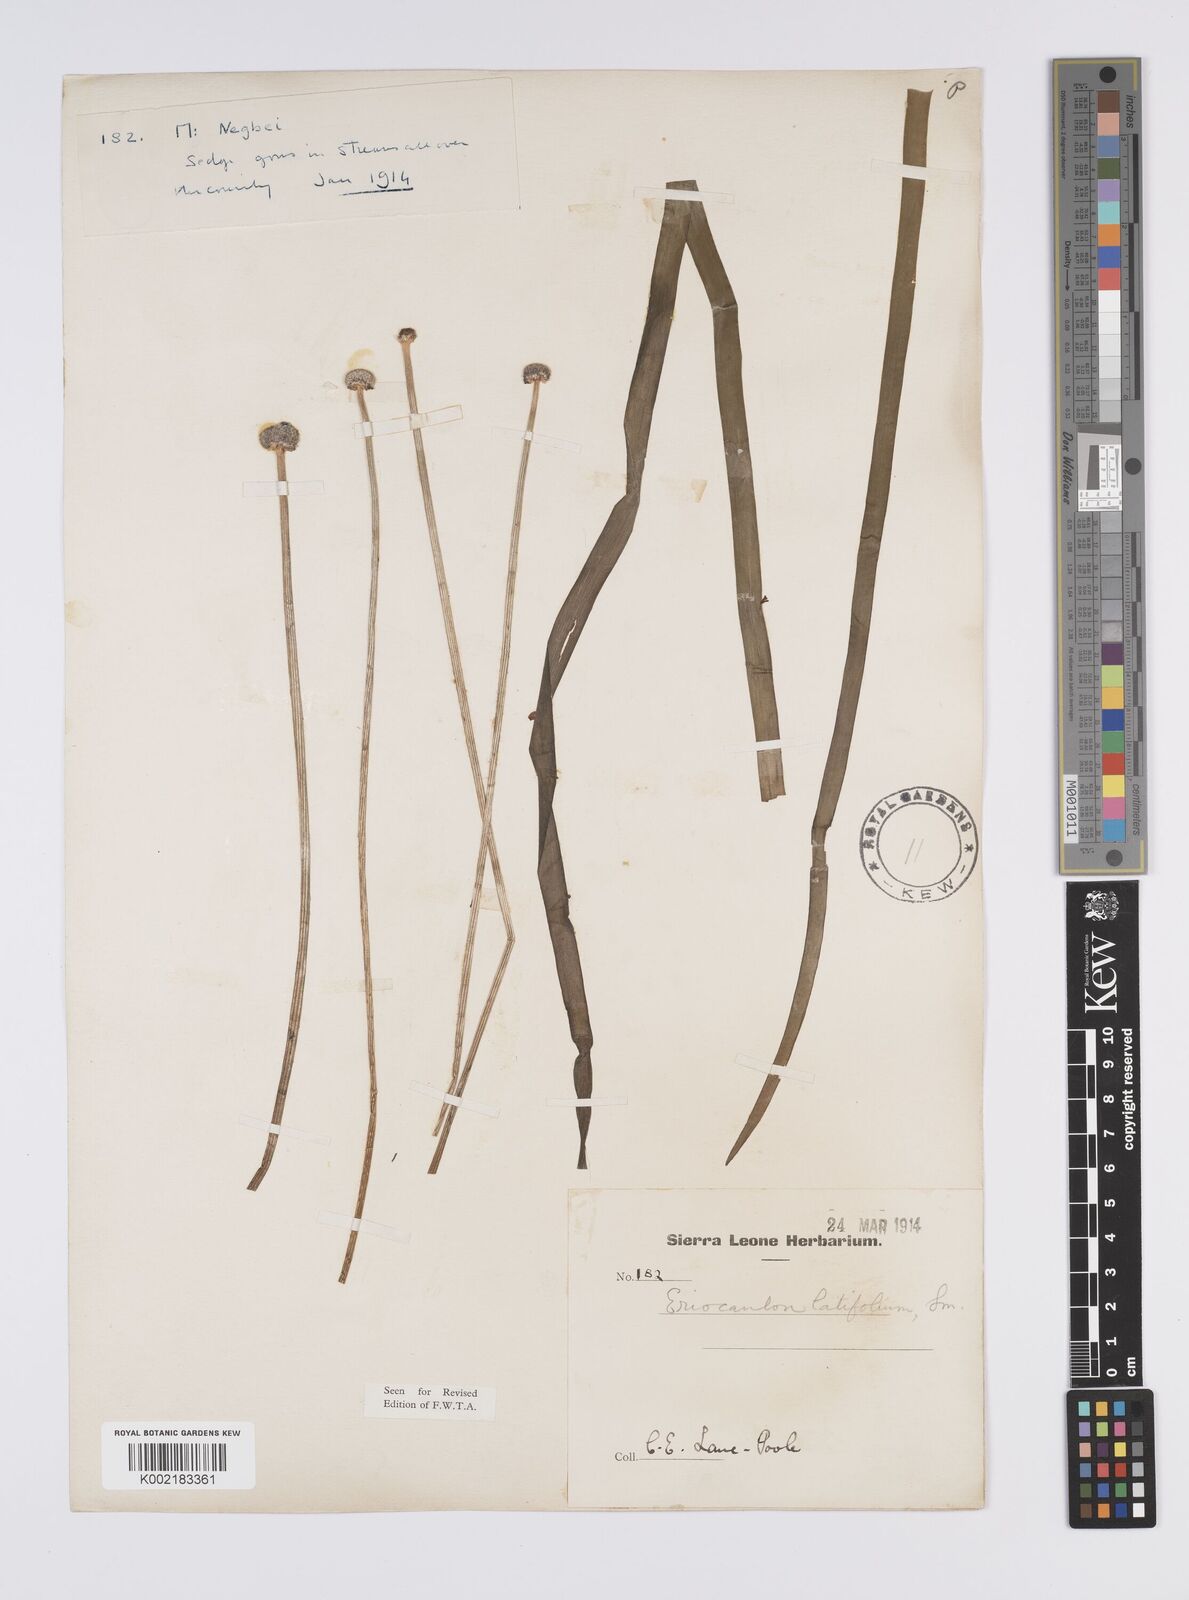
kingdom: Plantae
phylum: Tracheophyta
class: Liliopsida
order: Poales
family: Eriocaulaceae
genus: Eriocaulon
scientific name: Eriocaulon latifolium
